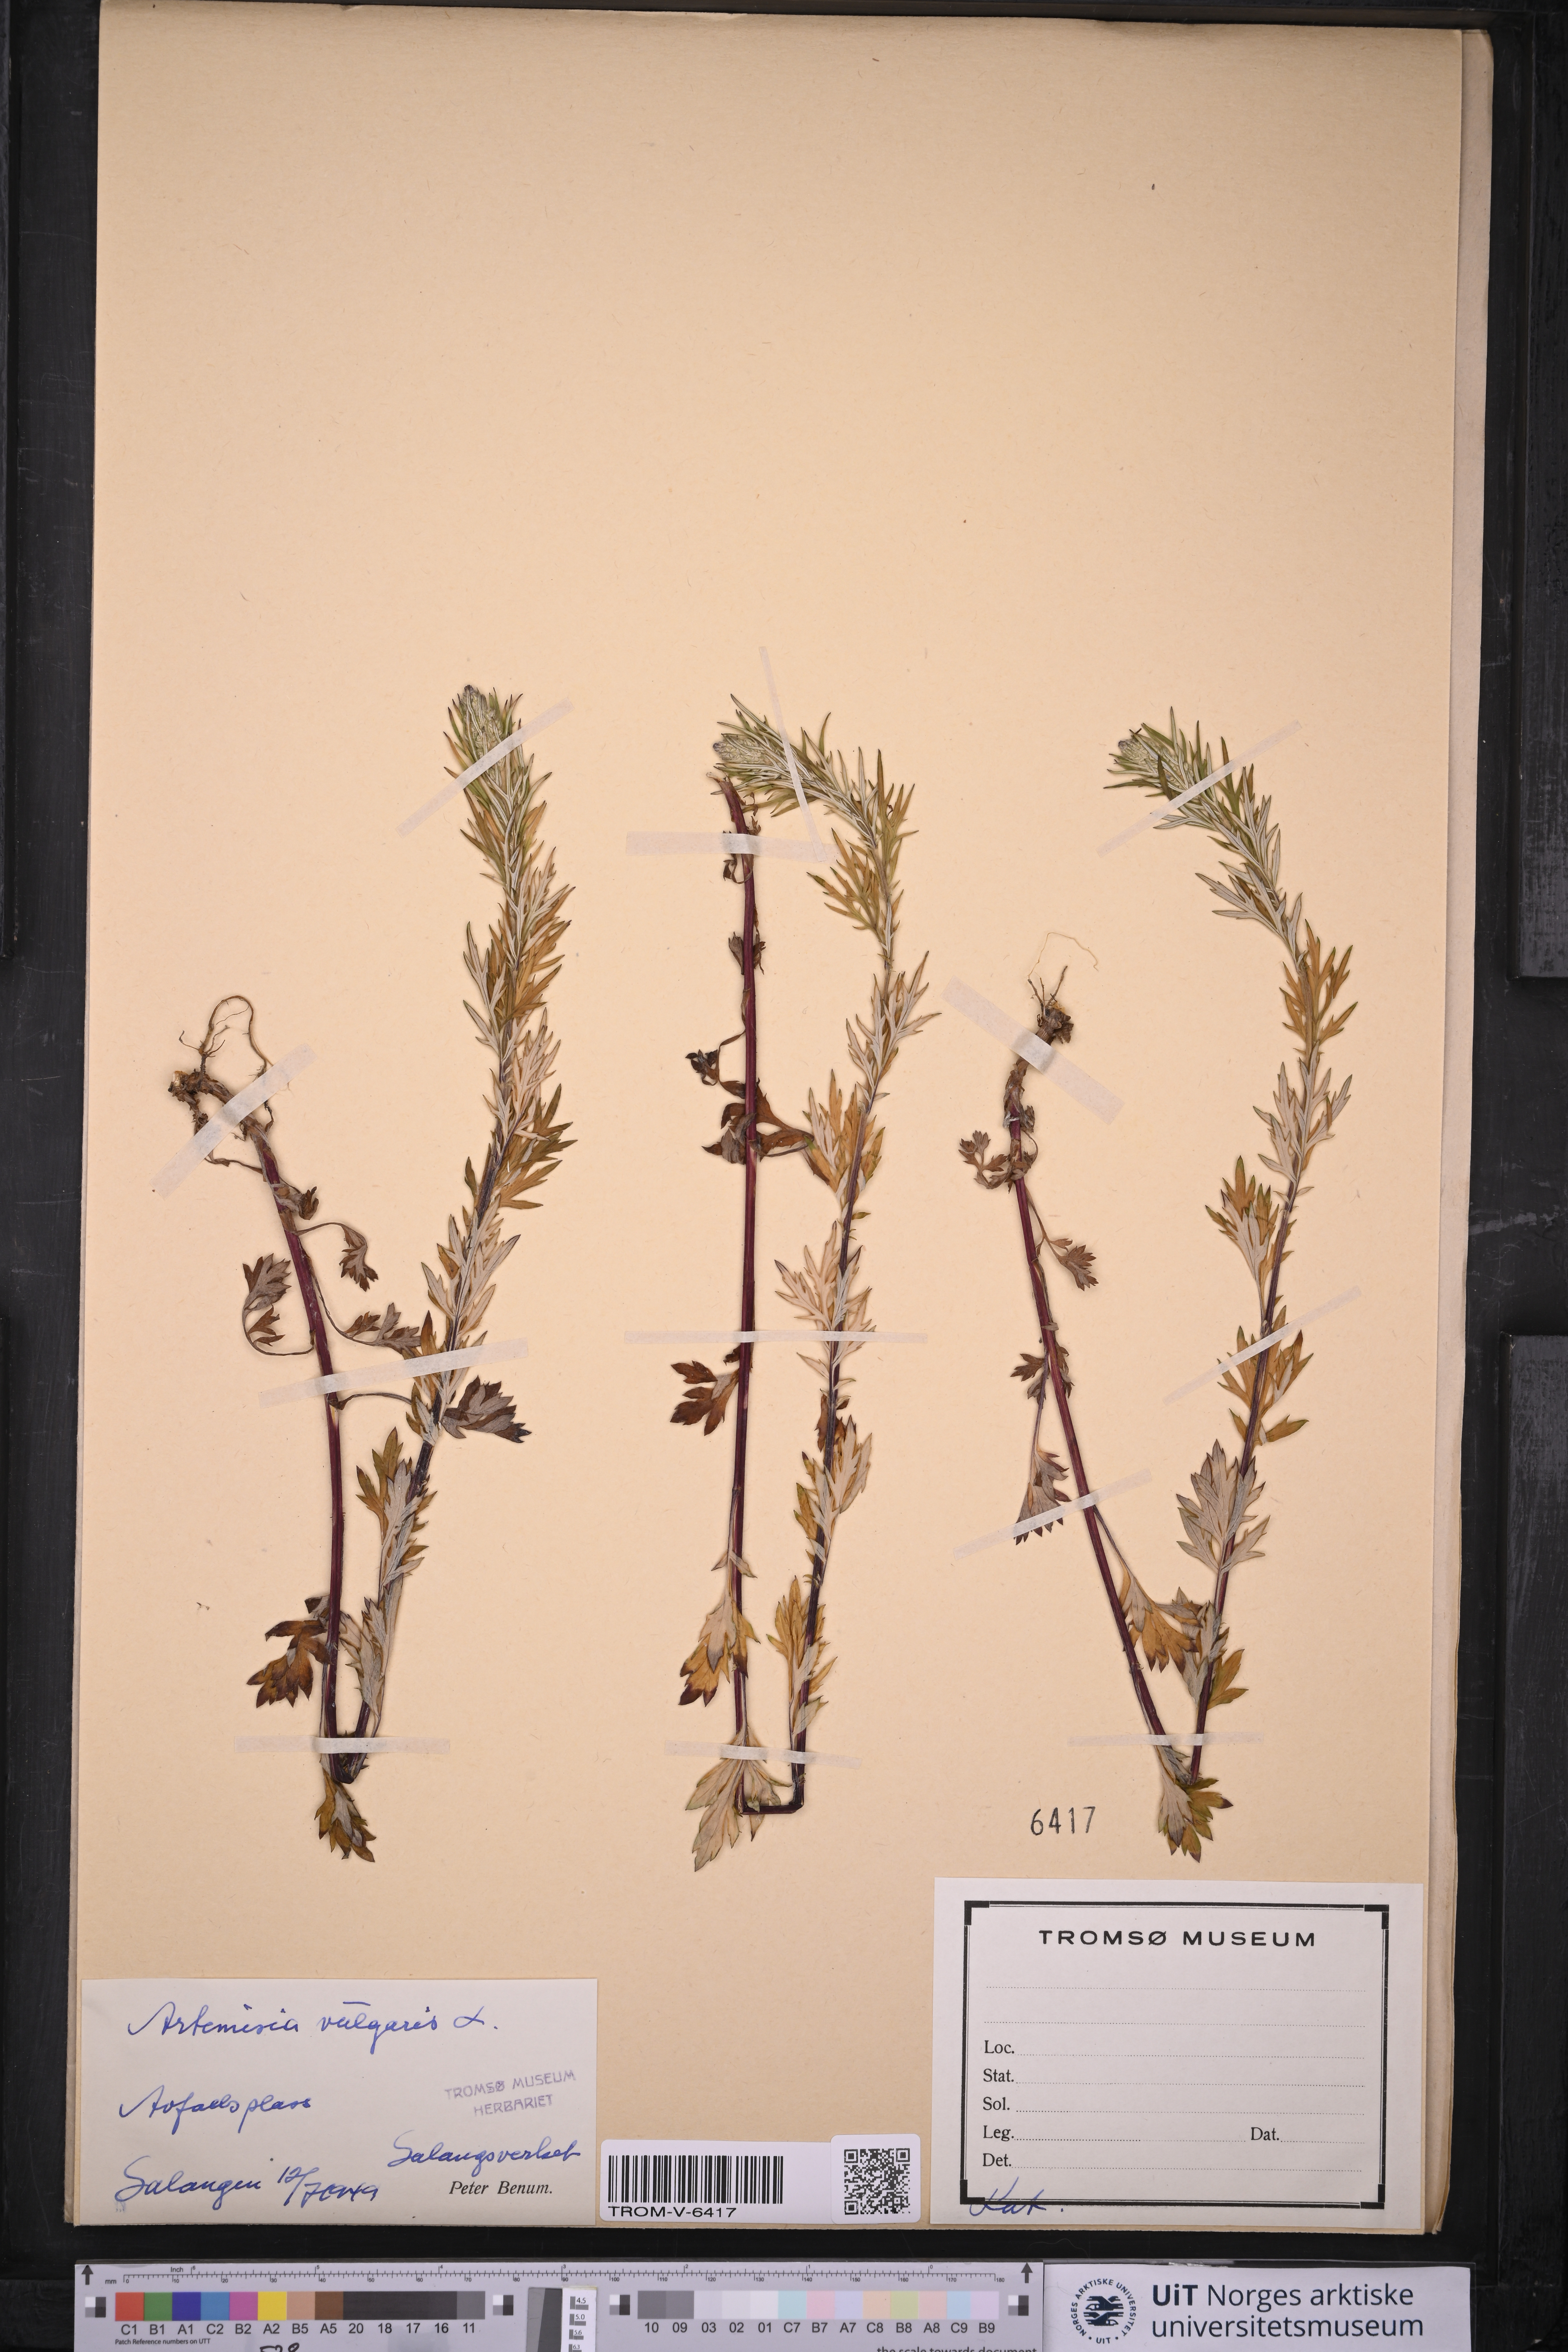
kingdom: Plantae
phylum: Tracheophyta
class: Magnoliopsida
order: Asterales
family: Asteraceae
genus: Artemisia
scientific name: Artemisia vulgaris
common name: Mugwort
